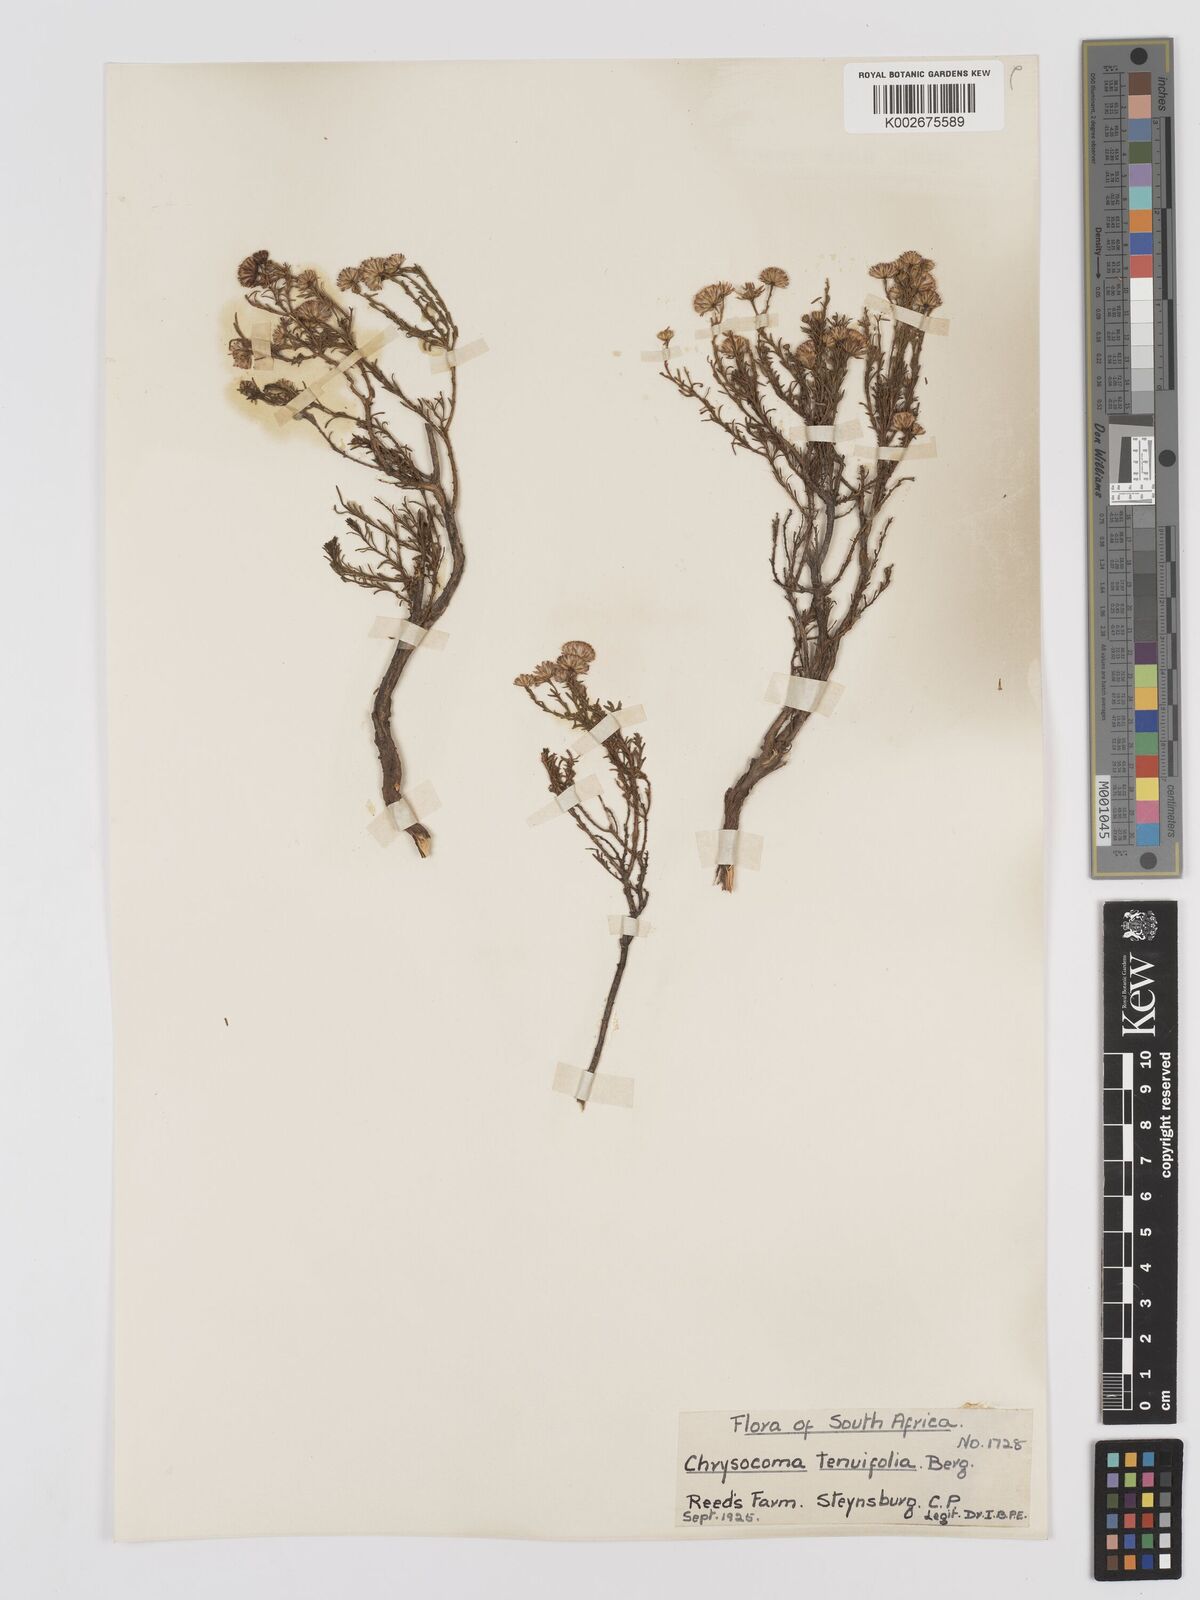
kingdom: Plantae
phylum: Tracheophyta
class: Magnoliopsida
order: Asterales
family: Asteraceae
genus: Chrysocoma
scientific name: Chrysocoma ciliata
